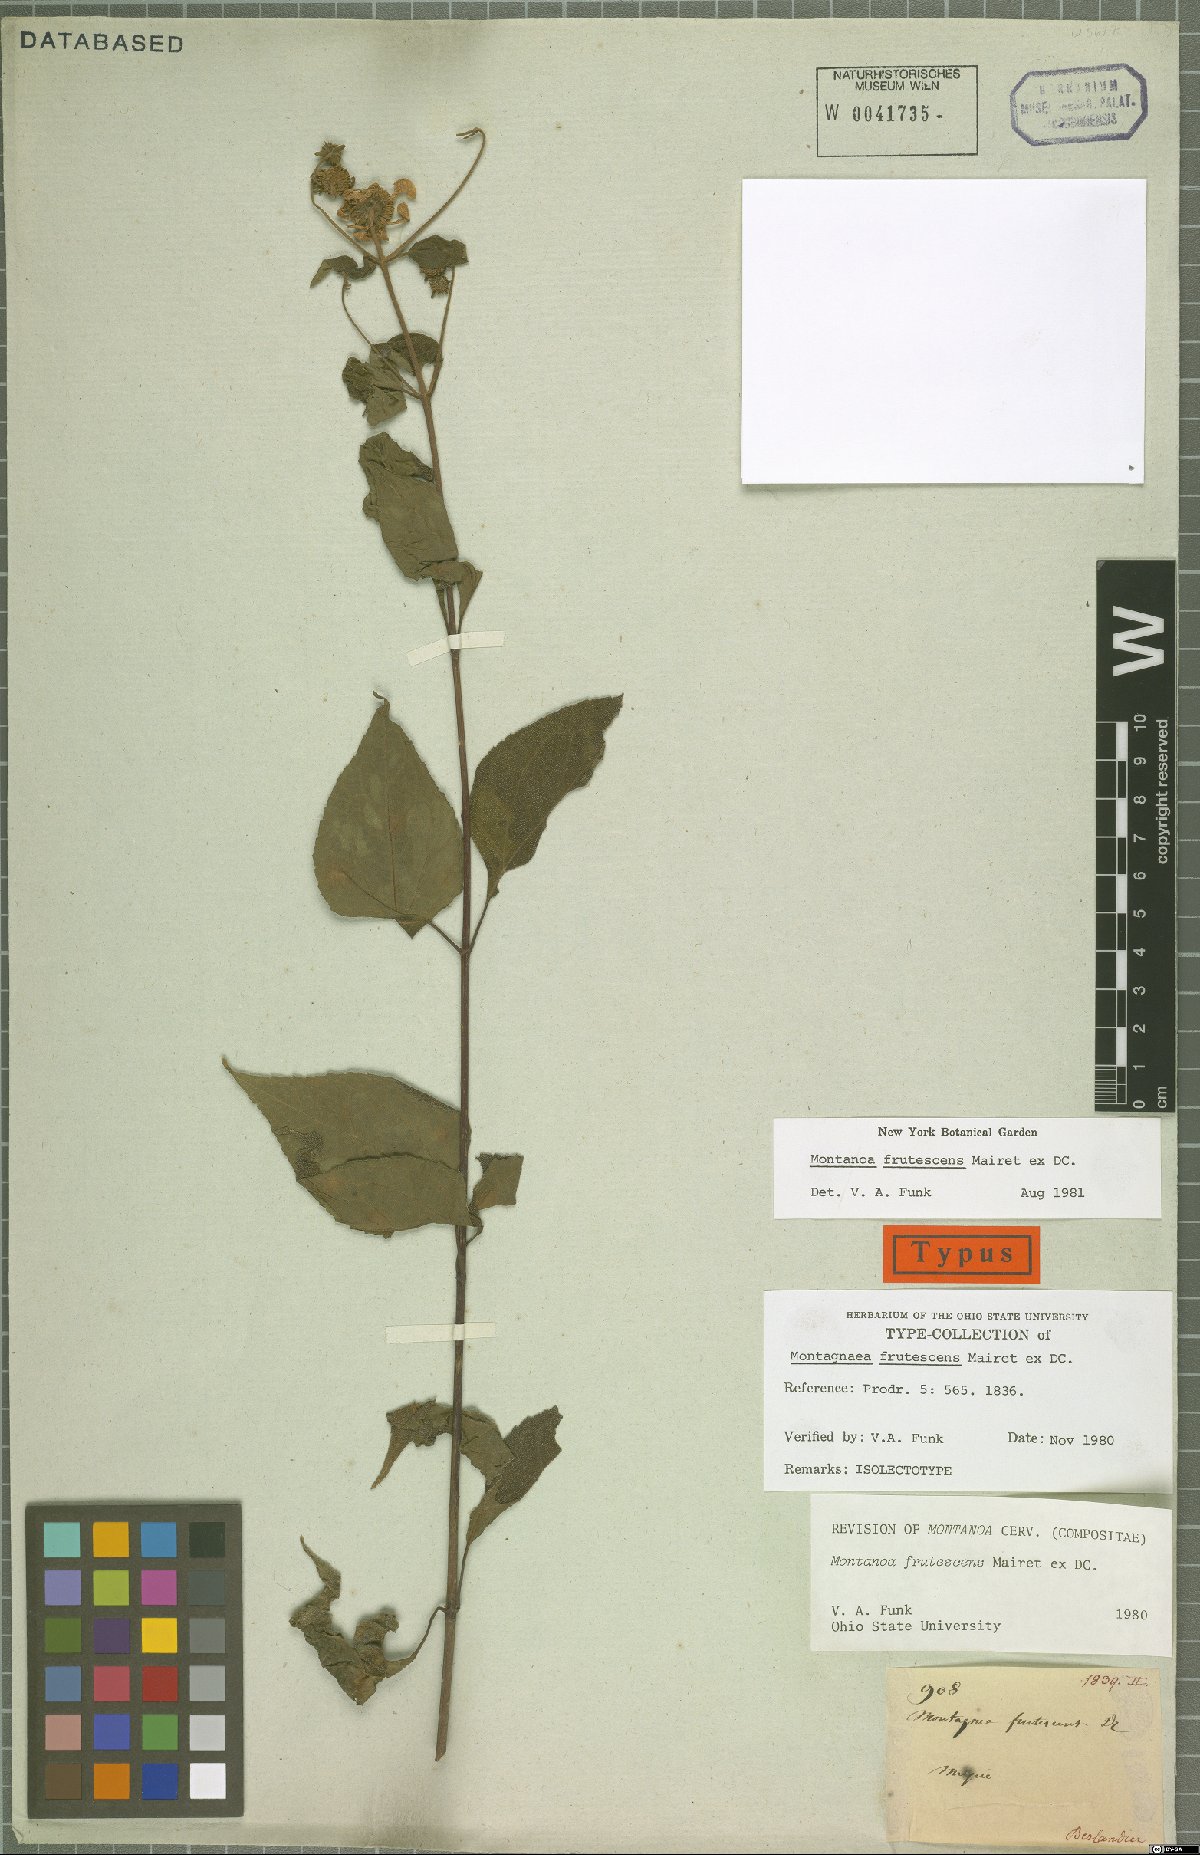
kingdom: Plantae
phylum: Tracheophyta
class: Magnoliopsida
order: Asterales
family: Asteraceae
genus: Montanoa
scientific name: Montanoa frutescens
